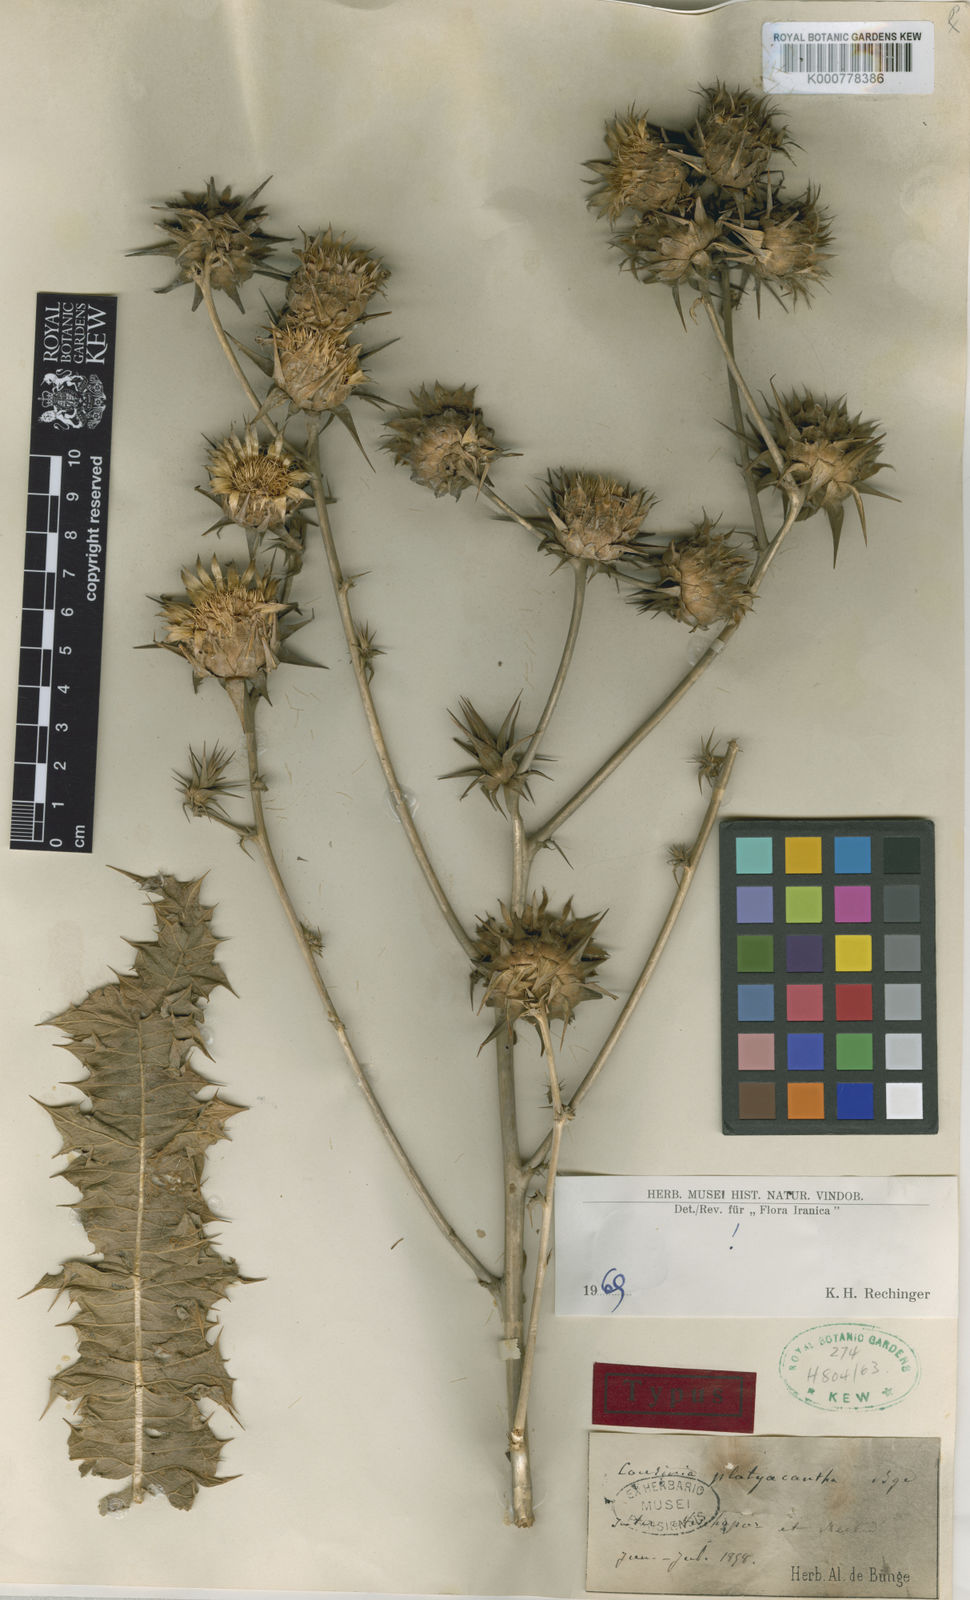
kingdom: Plantae
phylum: Tracheophyta
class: Magnoliopsida
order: Asterales
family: Asteraceae
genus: Cousinia
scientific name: Cousinia platyacantha
